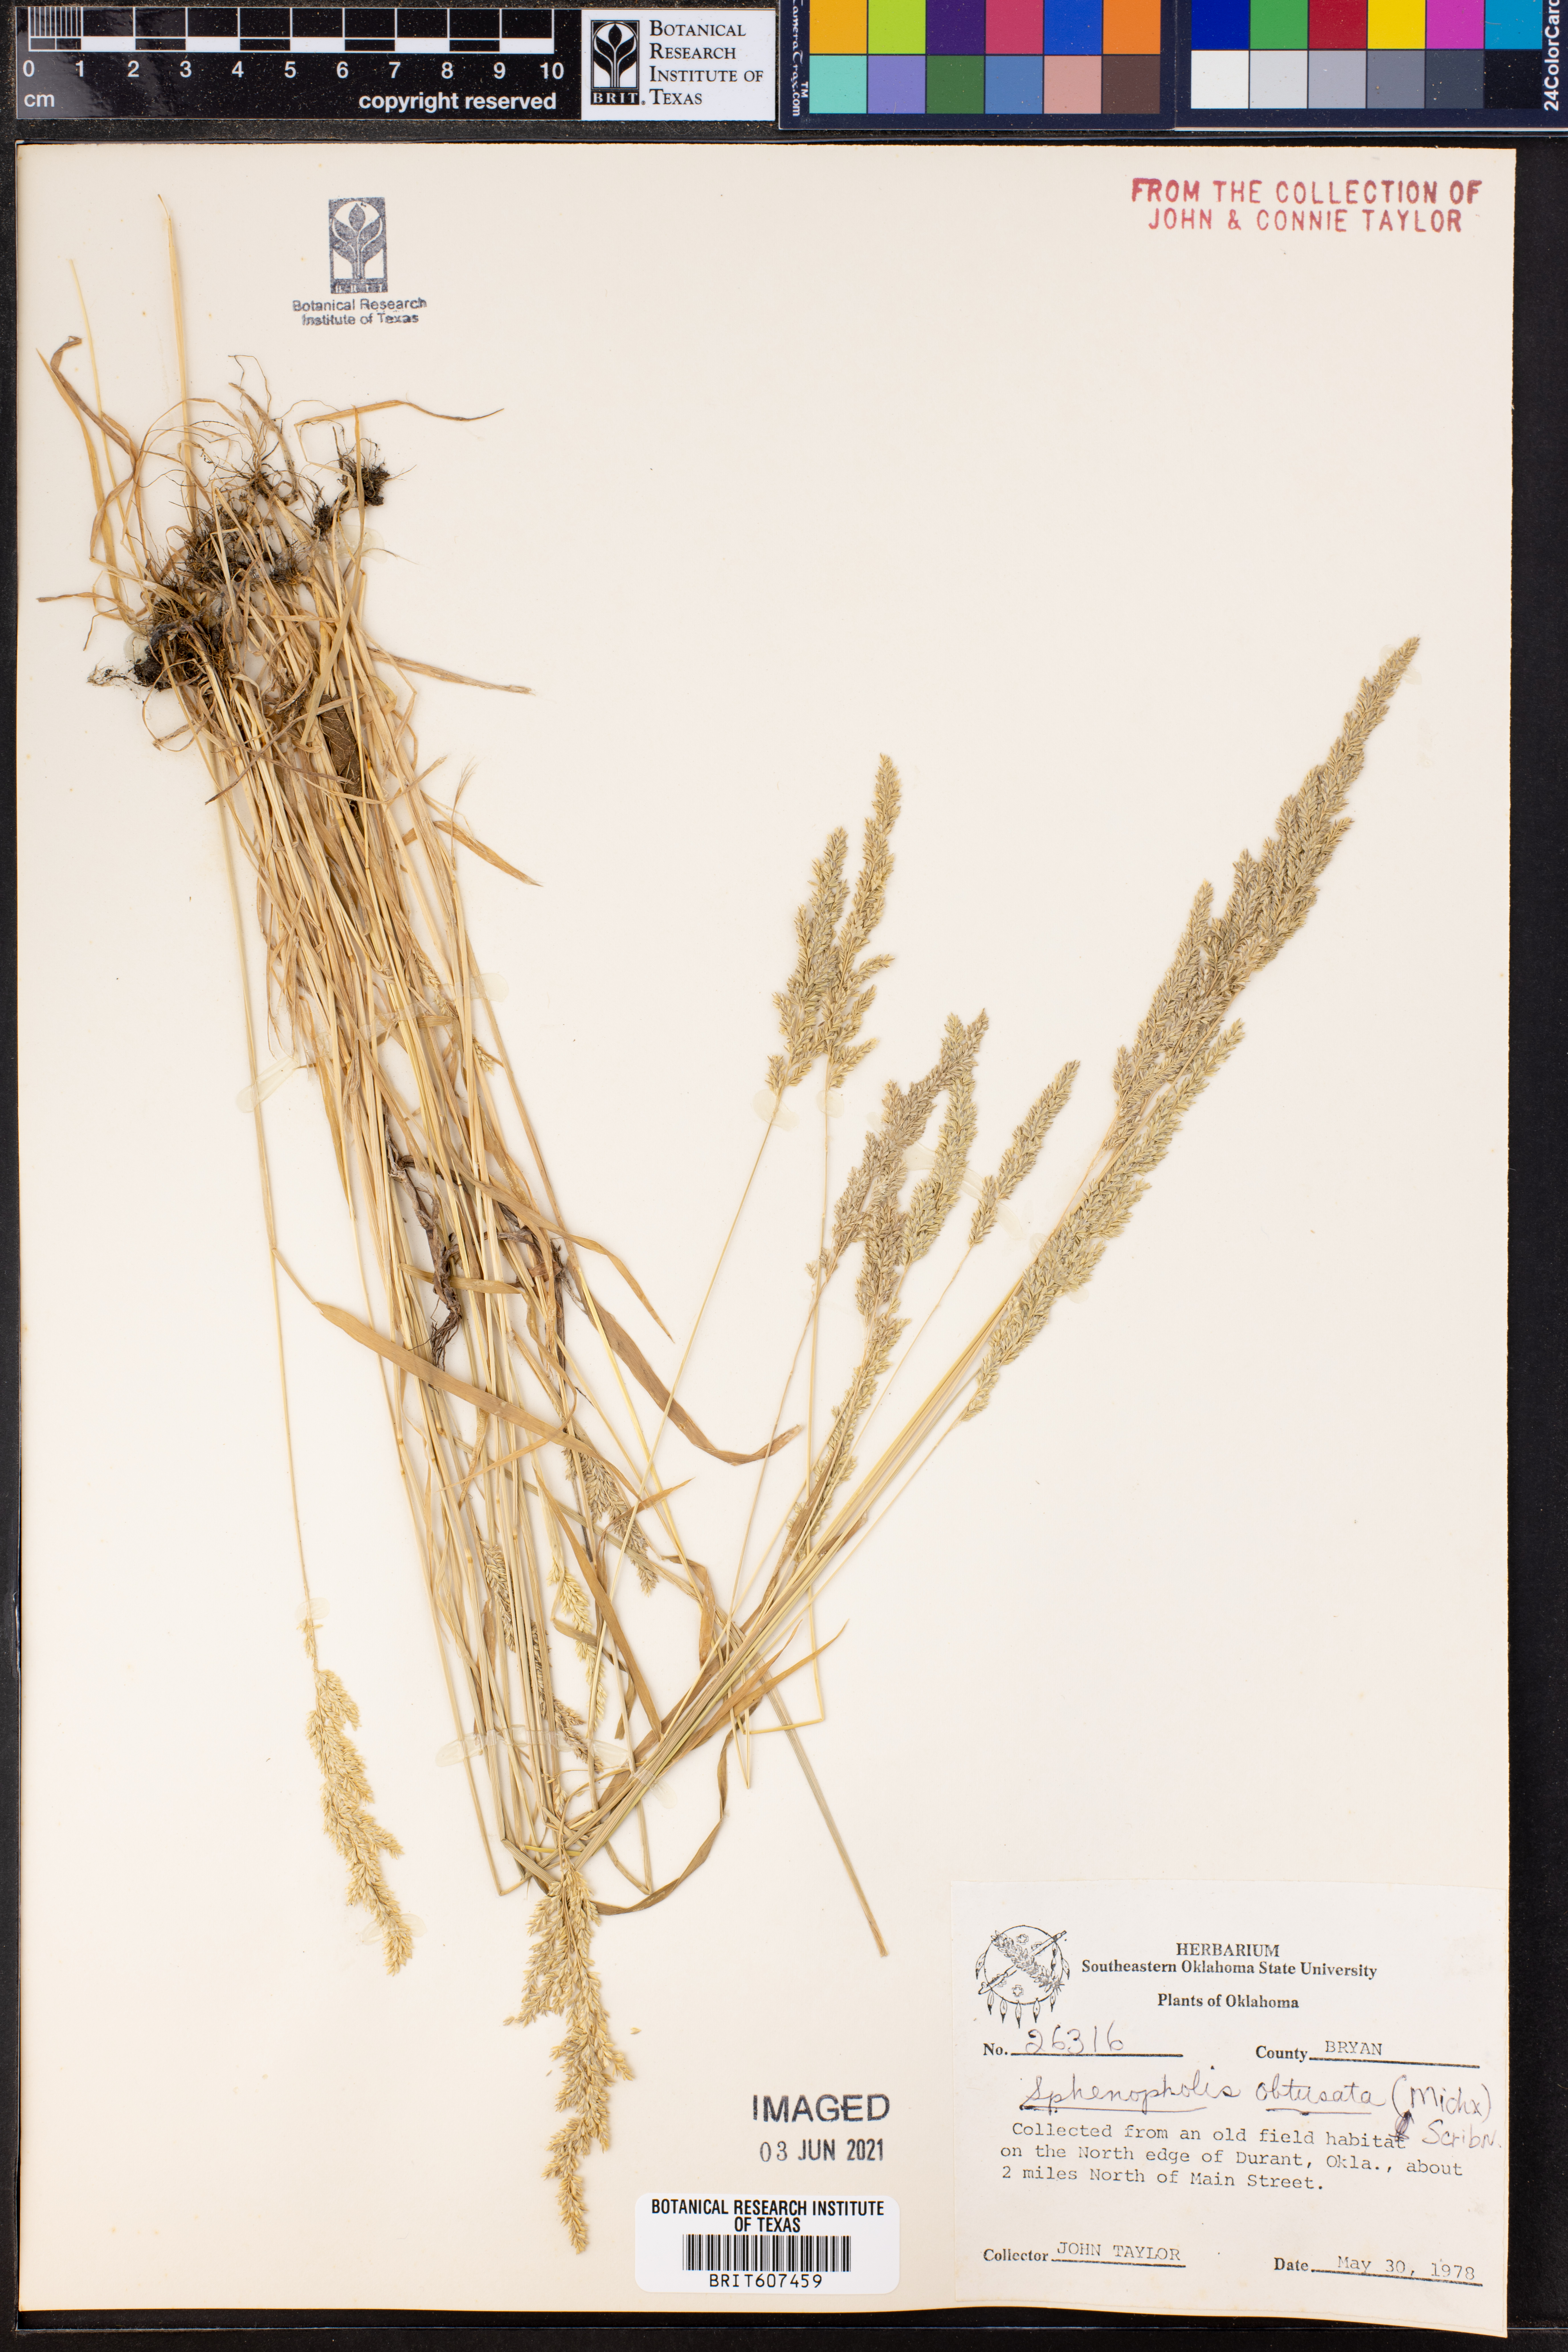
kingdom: Plantae
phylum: Tracheophyta
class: Liliopsida
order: Poales
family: Poaceae
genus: Sphenopholis
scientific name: Sphenopholis obtusata
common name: Prairie grass
